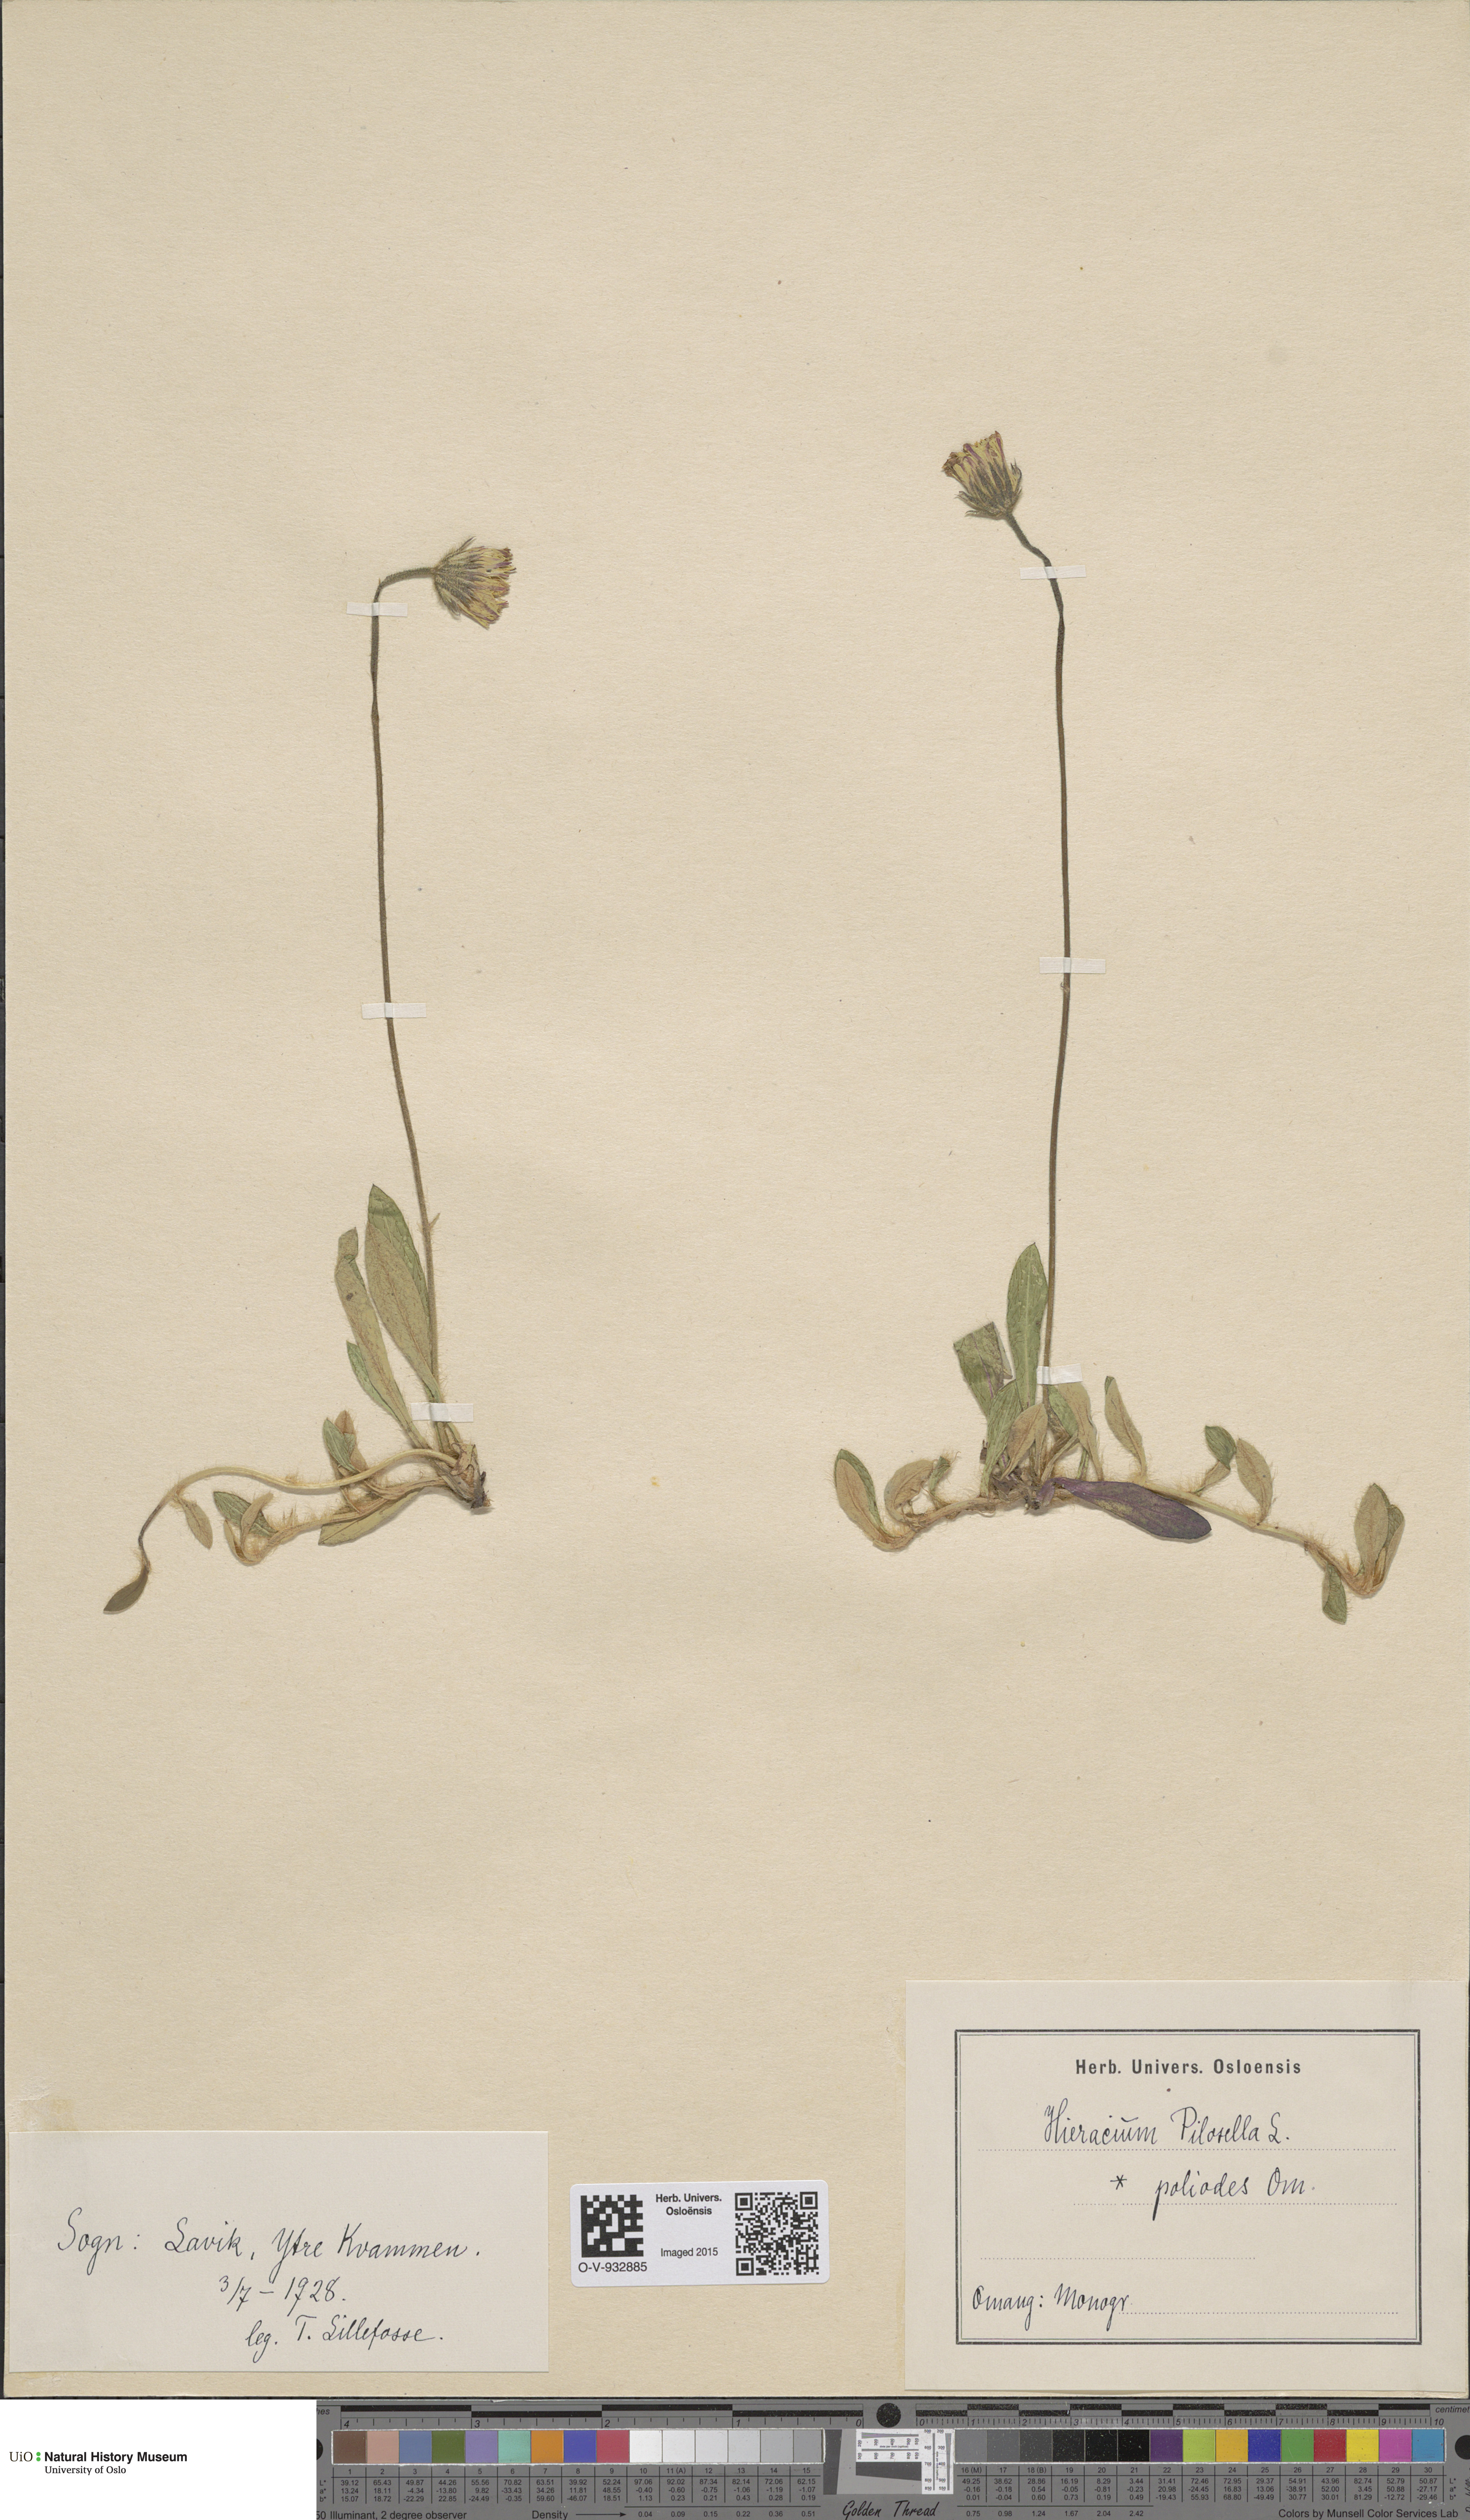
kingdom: Plantae
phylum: Tracheophyta
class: Magnoliopsida
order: Asterales
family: Asteraceae
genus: Pilosella
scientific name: Pilosella officinarum
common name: Mouse-ear hawkweed
